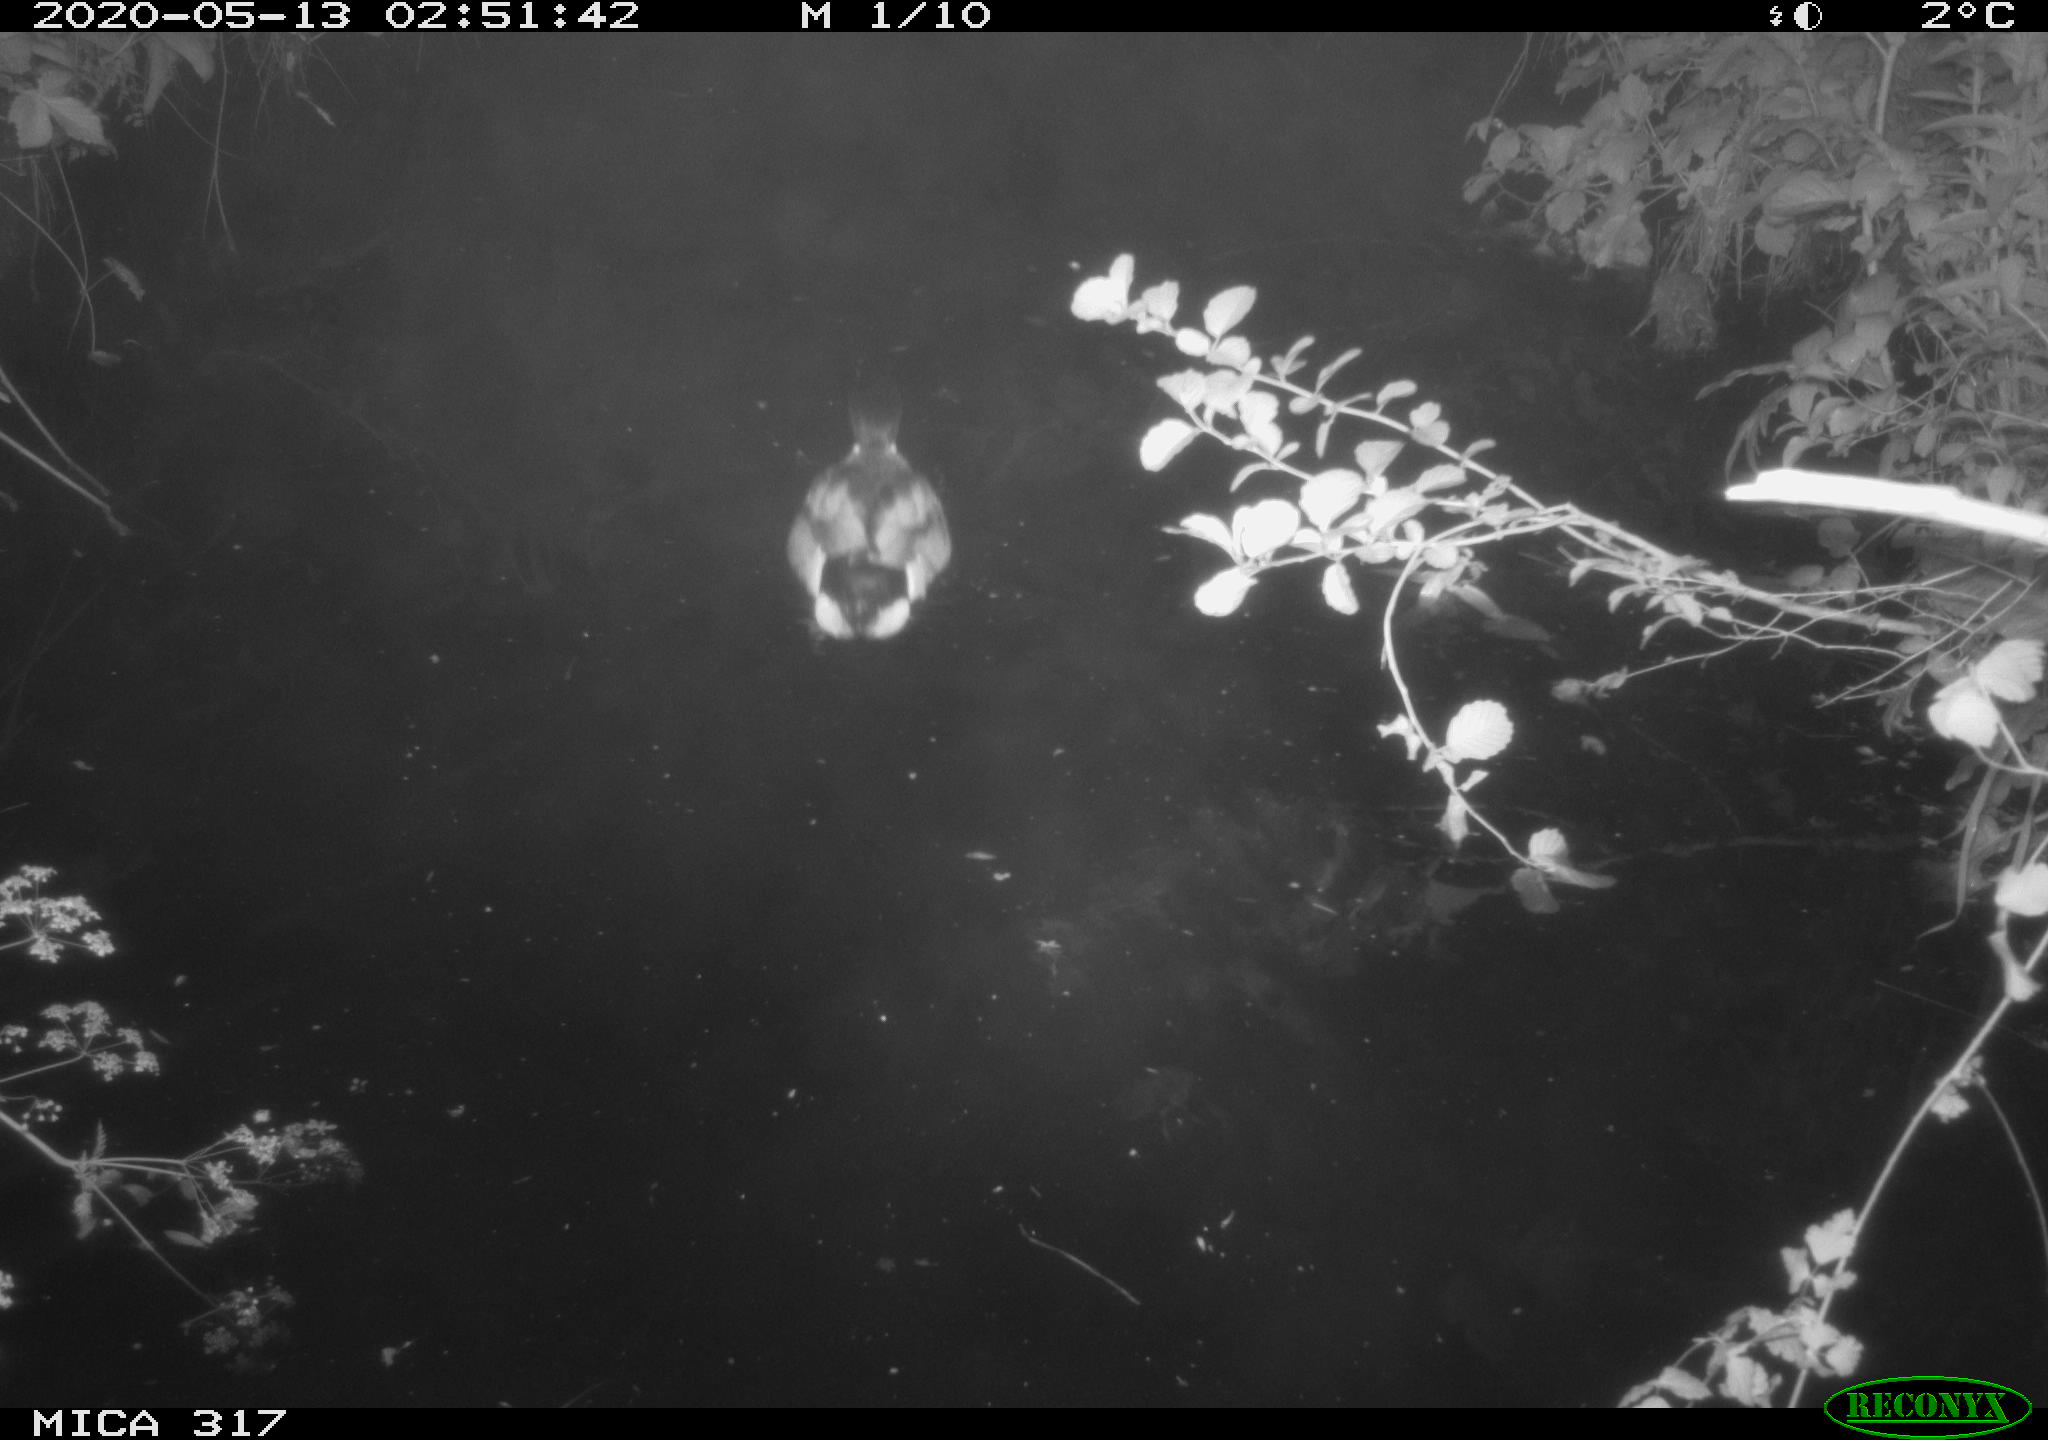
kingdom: Animalia
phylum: Chordata
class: Aves
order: Anseriformes
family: Anatidae
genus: Anas
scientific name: Anas platyrhynchos
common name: Mallard
